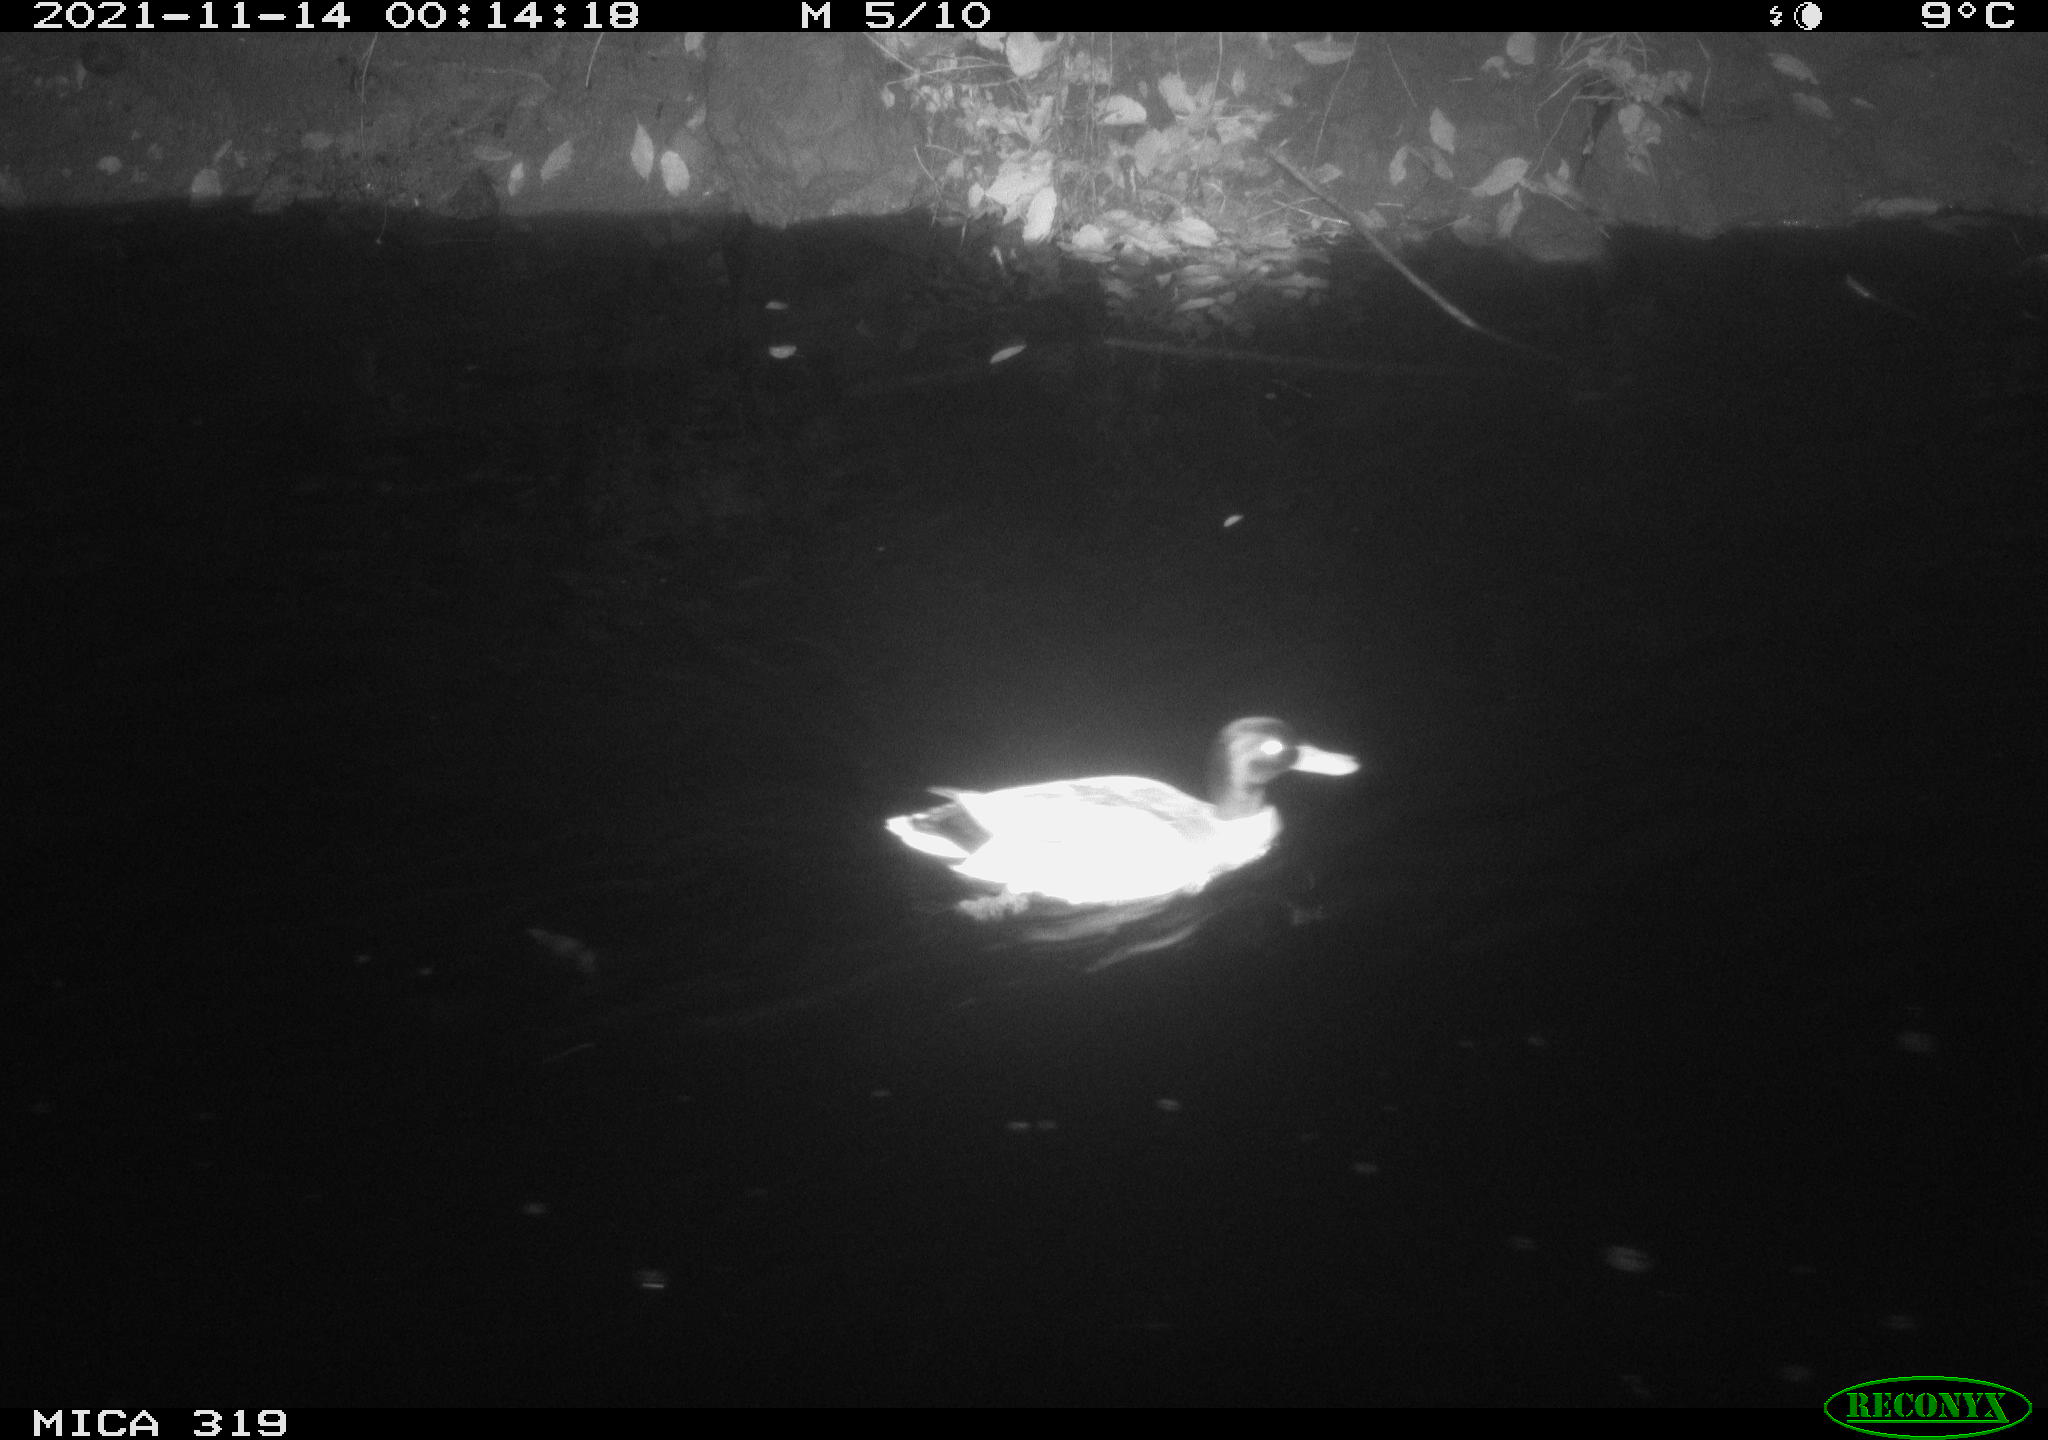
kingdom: Animalia
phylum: Chordata
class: Aves
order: Anseriformes
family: Anatidae
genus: Anas
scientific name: Anas platyrhynchos
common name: Mallard
